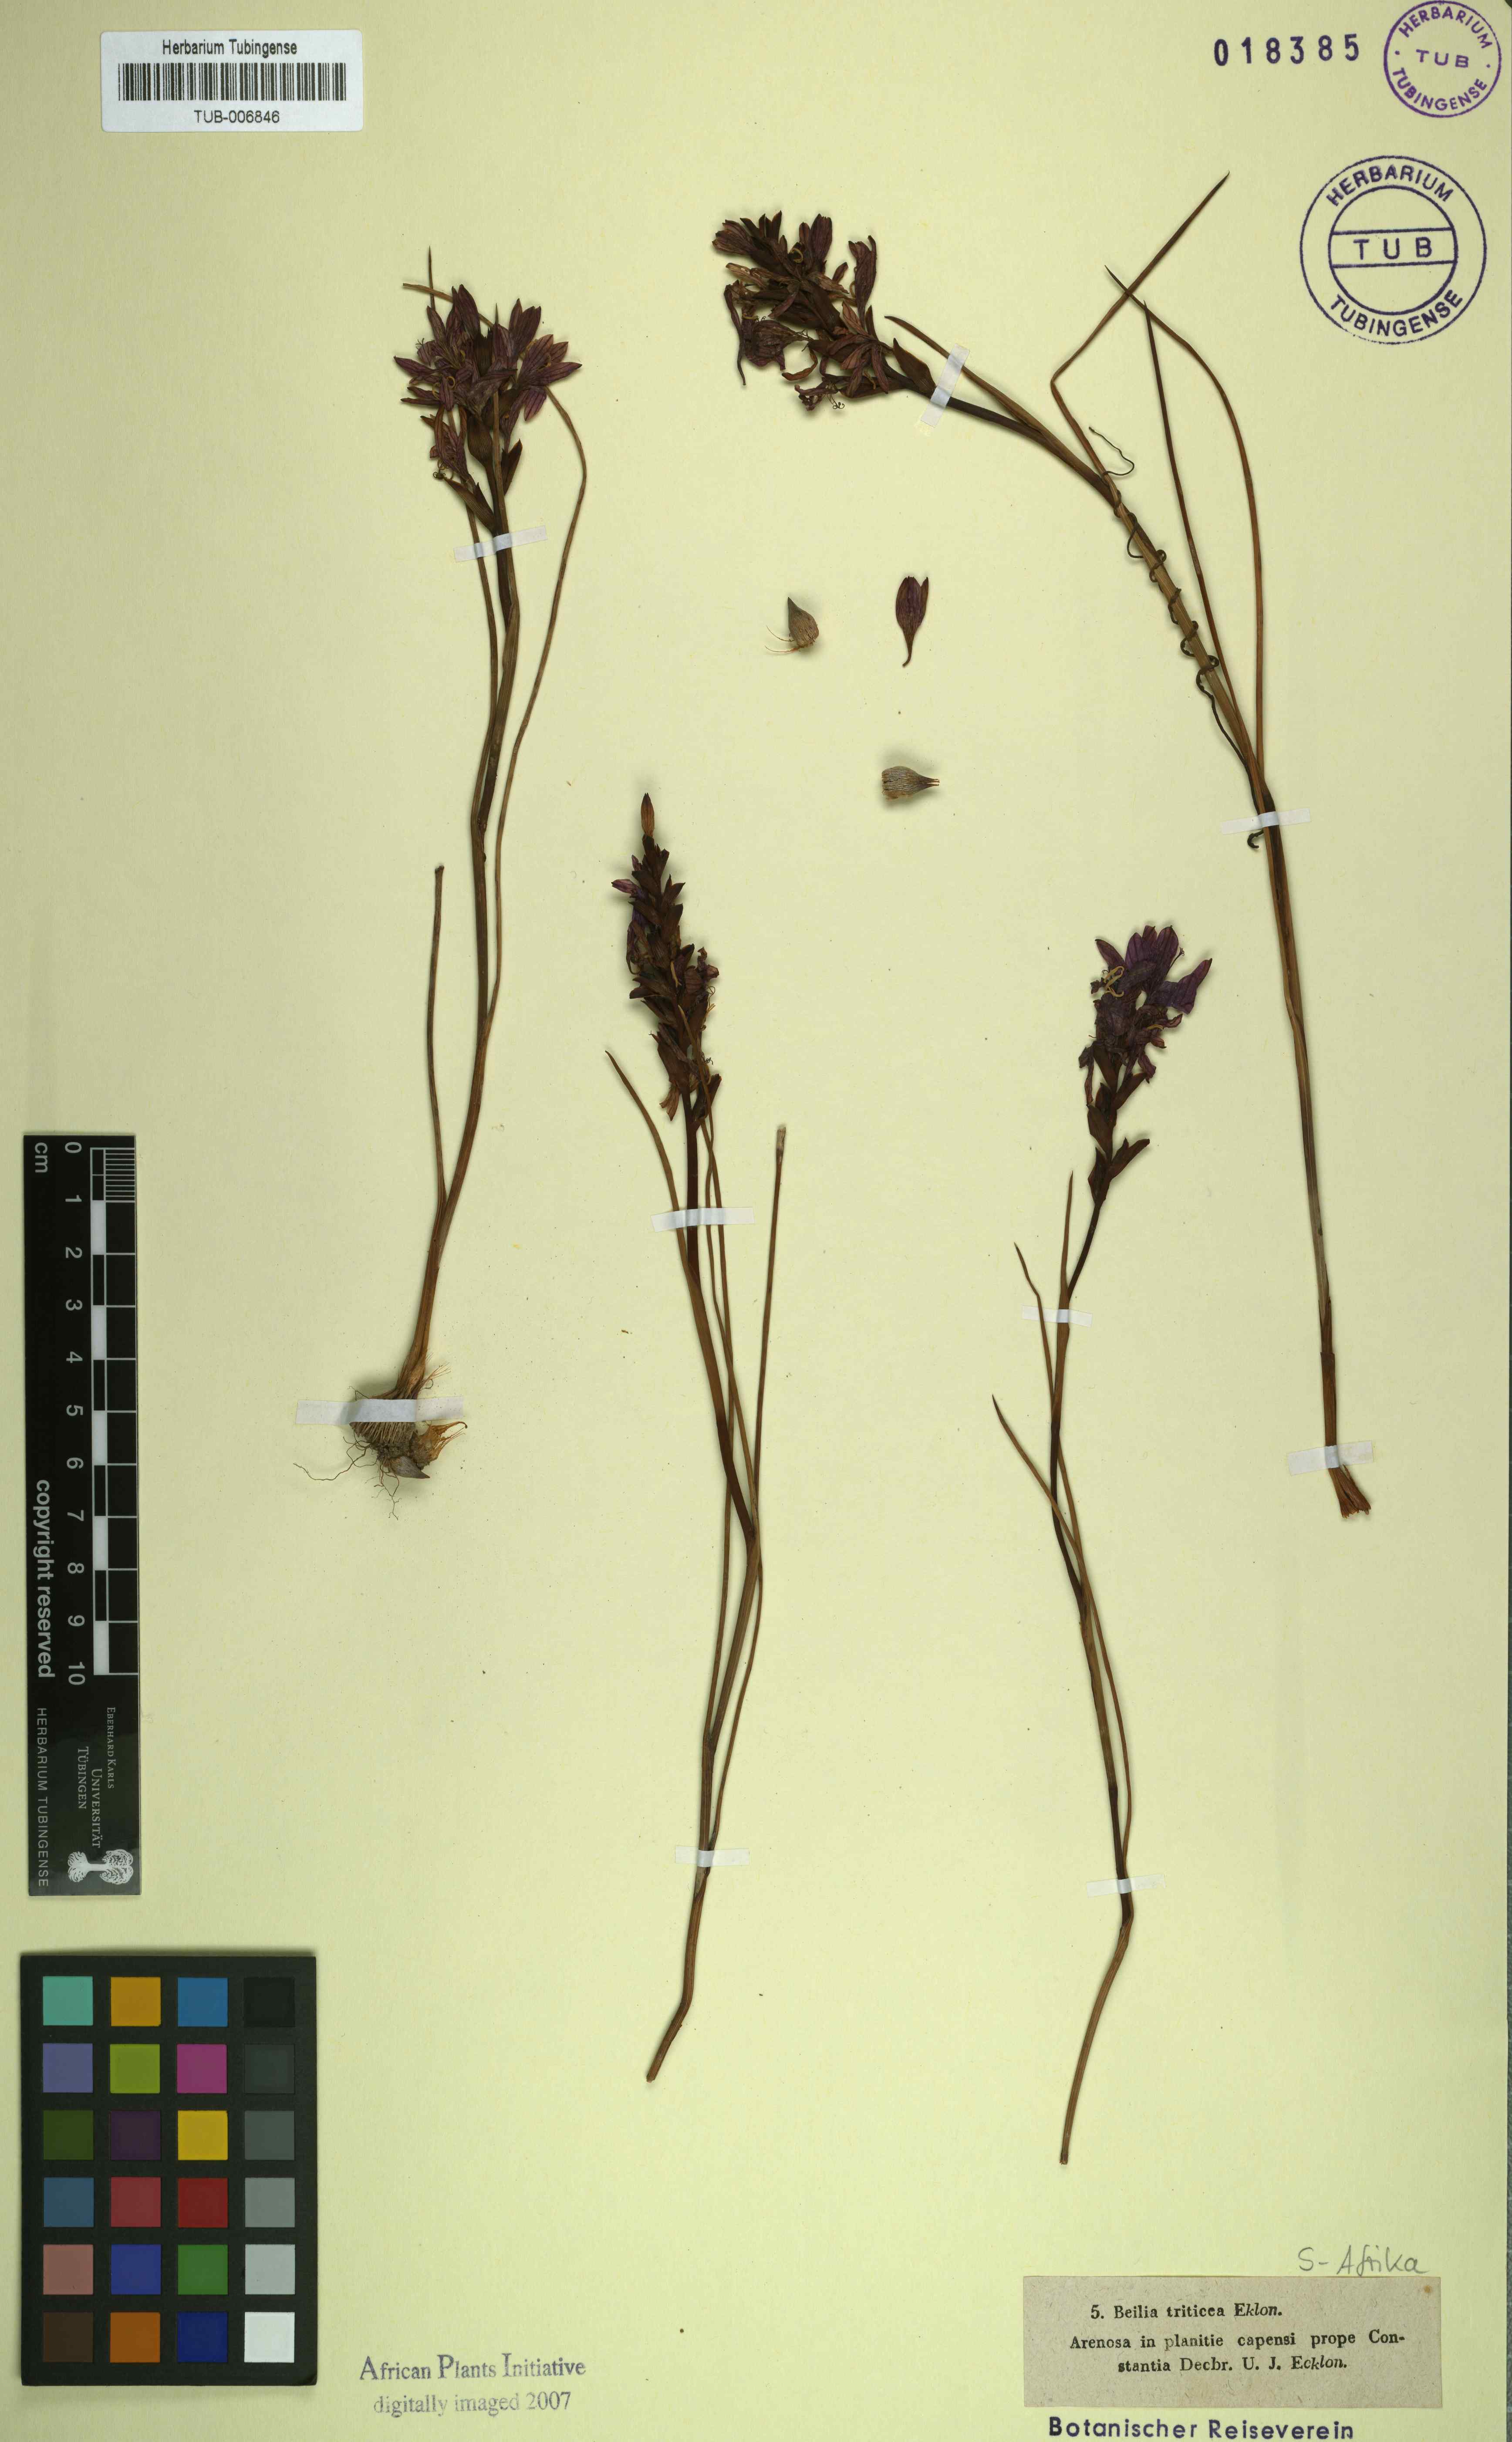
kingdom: Plantae
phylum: Tracheophyta
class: Liliopsida
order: Asparagales
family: Iridaceae
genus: Thereianthus
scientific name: Thereianthus bracteolatus
